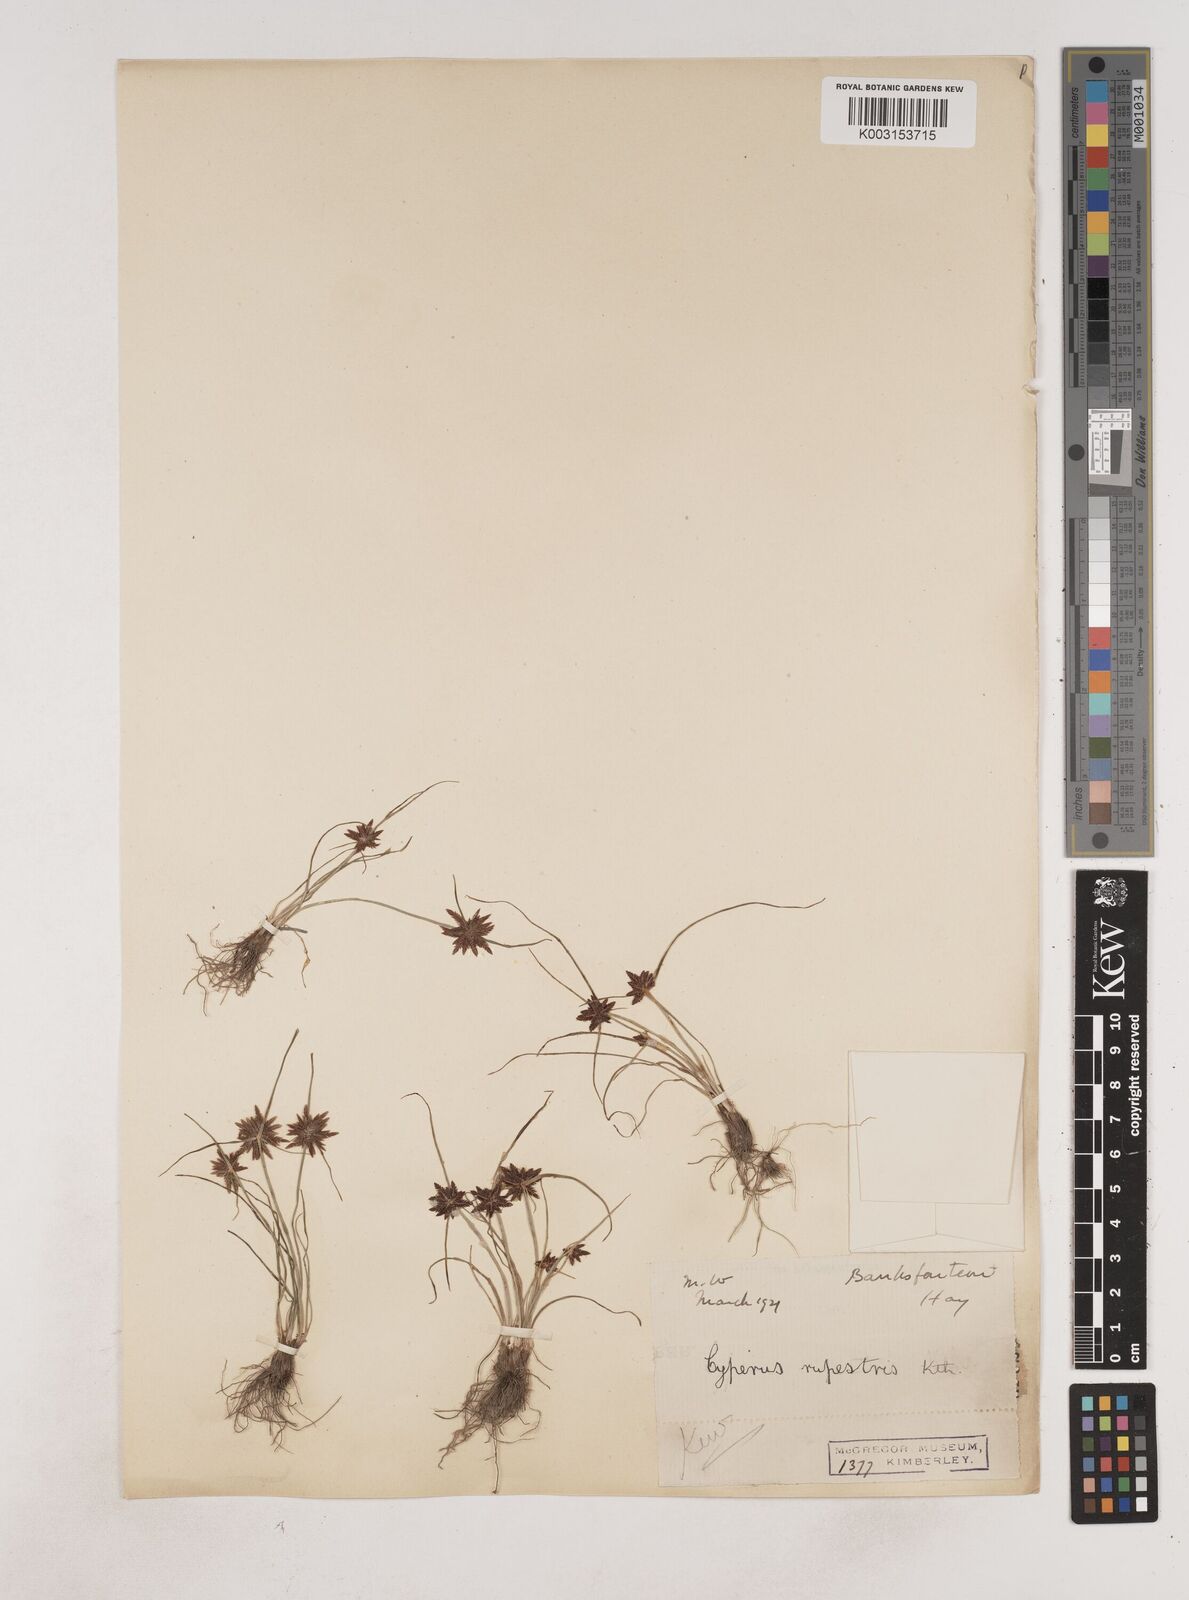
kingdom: Plantae
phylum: Tracheophyta
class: Liliopsida
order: Poales
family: Cyperaceae
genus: Cyperus
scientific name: Cyperus remotiflorus
